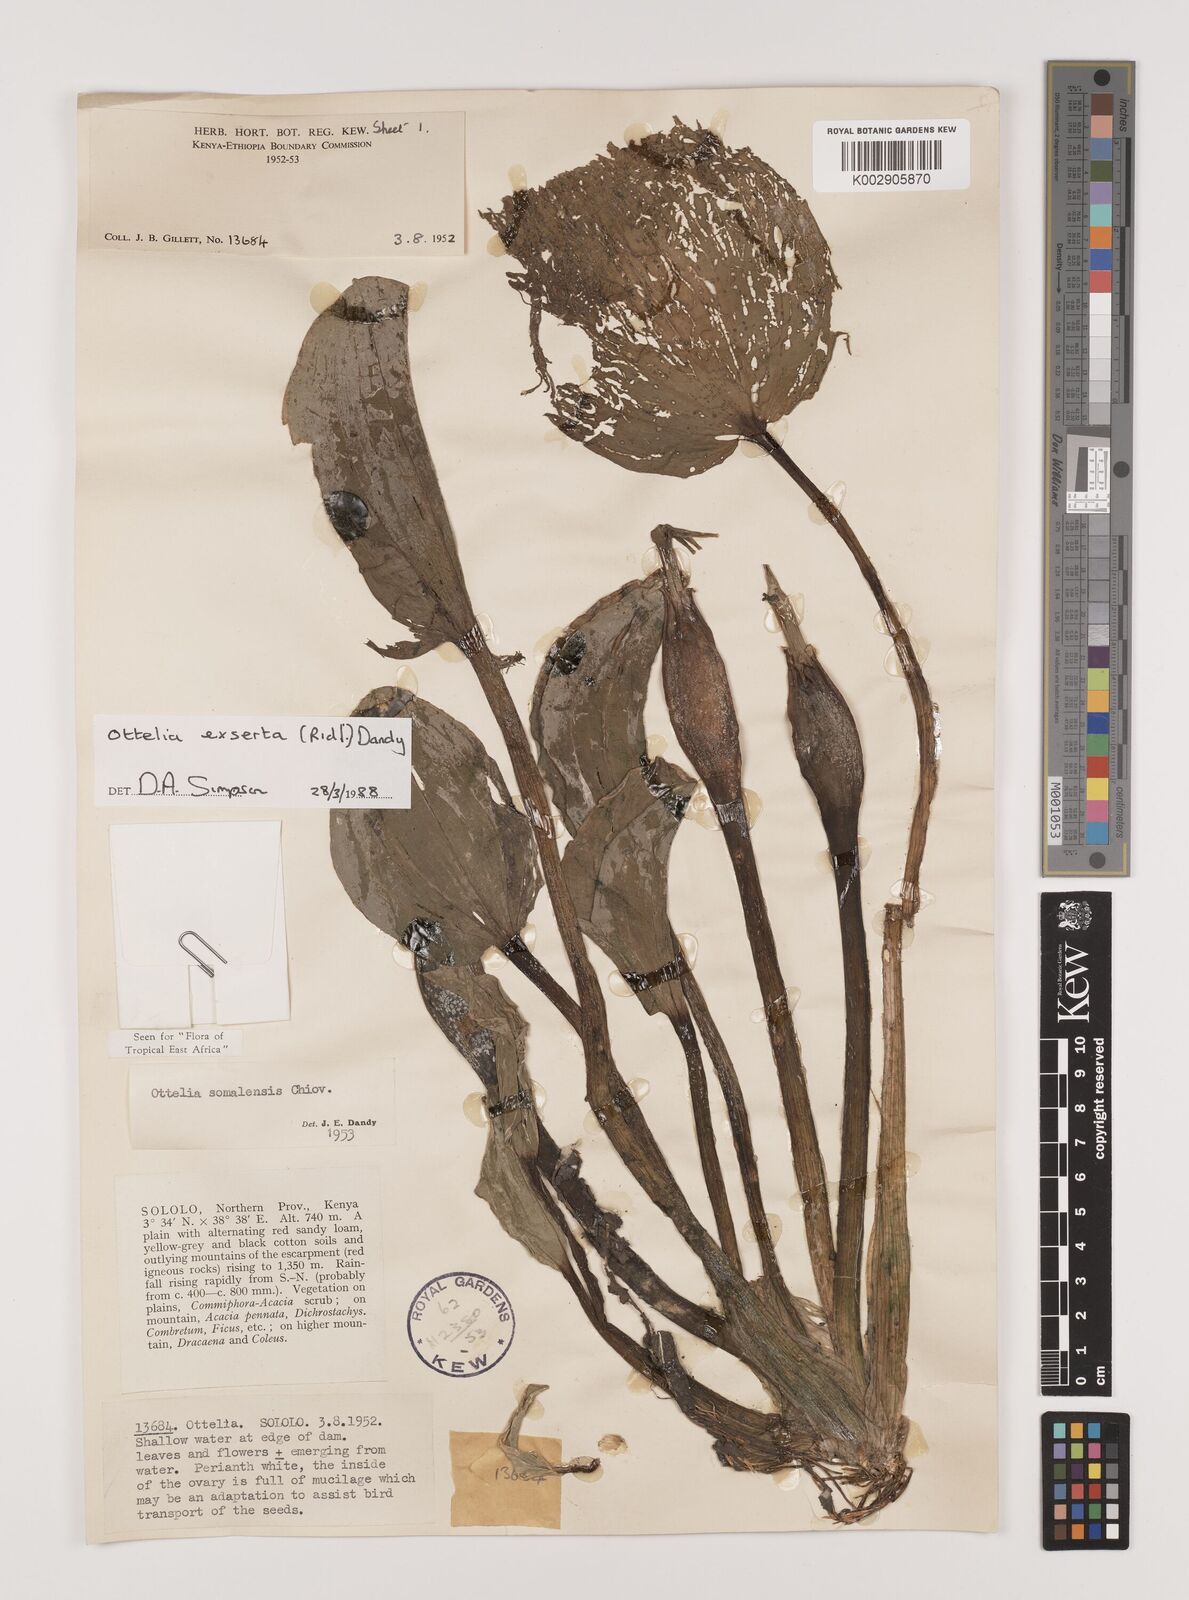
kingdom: Plantae
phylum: Tracheophyta
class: Liliopsida
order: Alismatales
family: Hydrocharitaceae
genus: Ottelia
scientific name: Ottelia exserta
